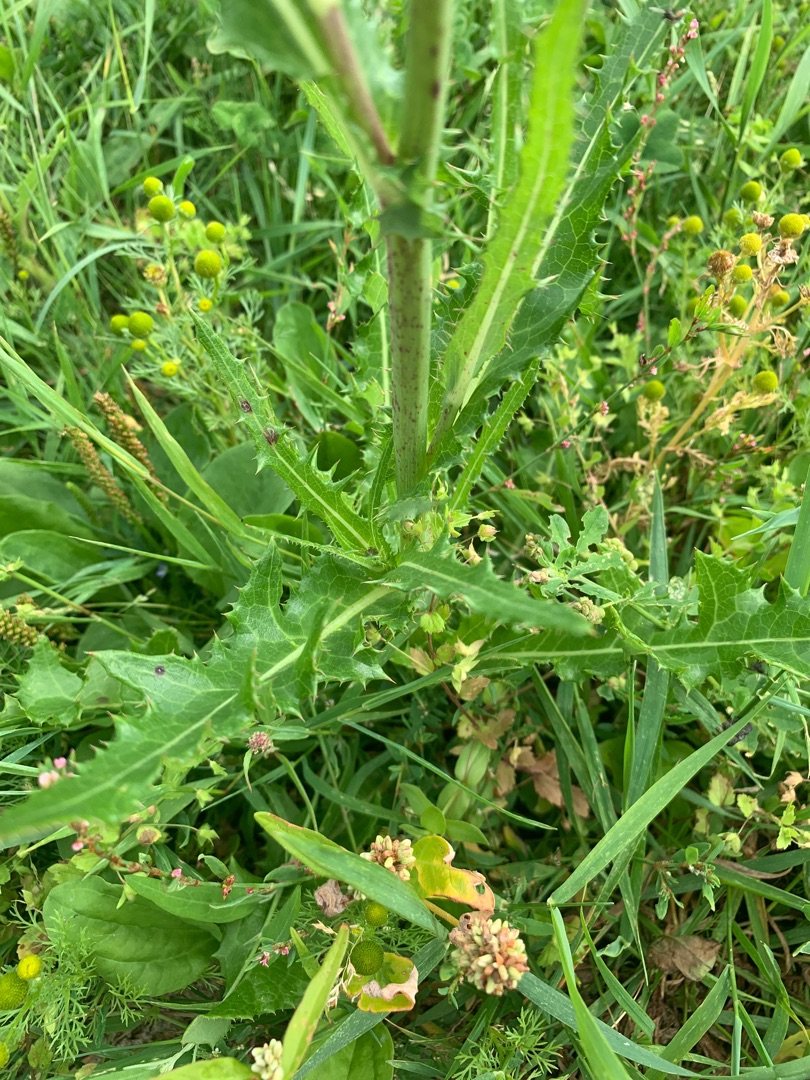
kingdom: Plantae
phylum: Tracheophyta
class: Magnoliopsida
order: Asterales
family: Asteraceae
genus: Sonchus
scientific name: Sonchus arvensis
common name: Ager-svinemælk
